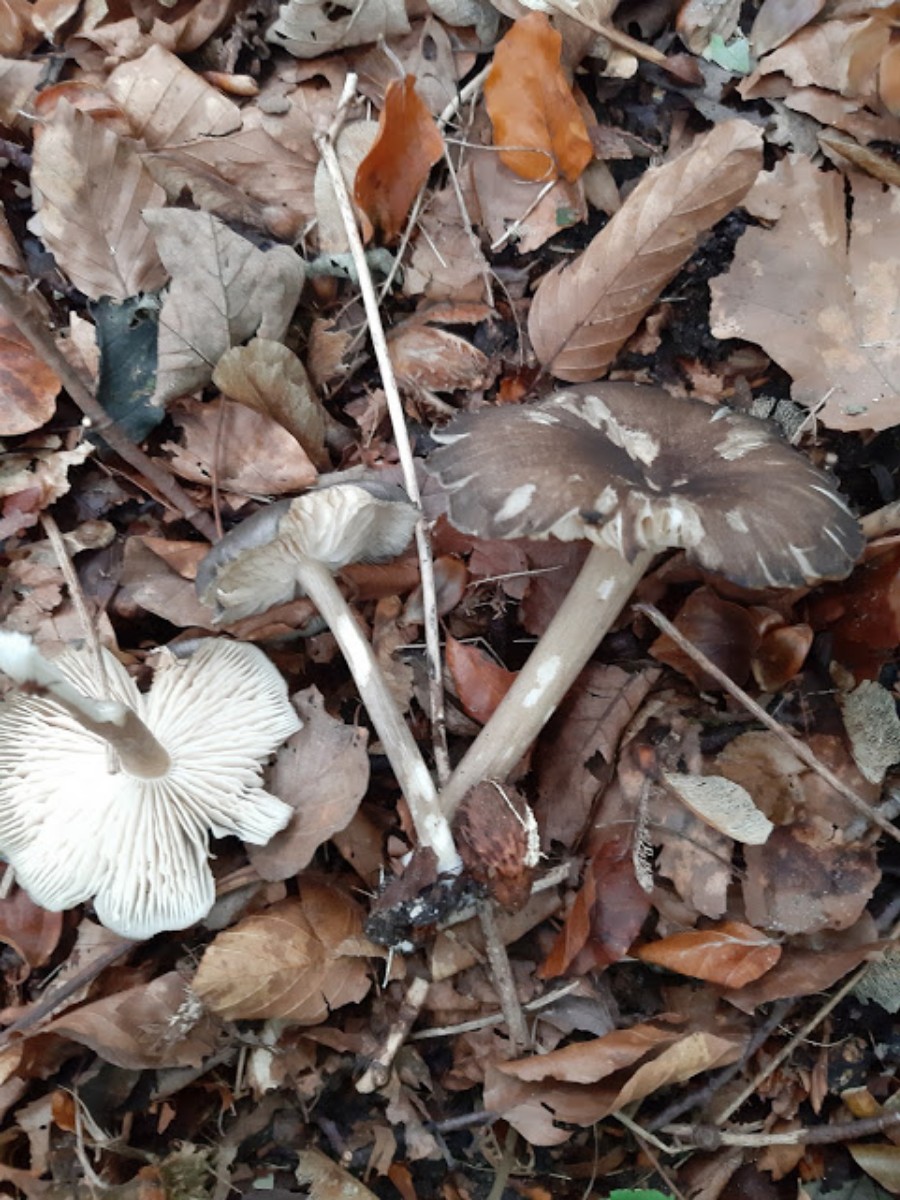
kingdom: Fungi
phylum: Basidiomycota
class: Agaricomycetes
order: Agaricales
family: Tricholomataceae
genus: Megacollybia
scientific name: Megacollybia platyphylla
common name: bredbladet væbnerhat
